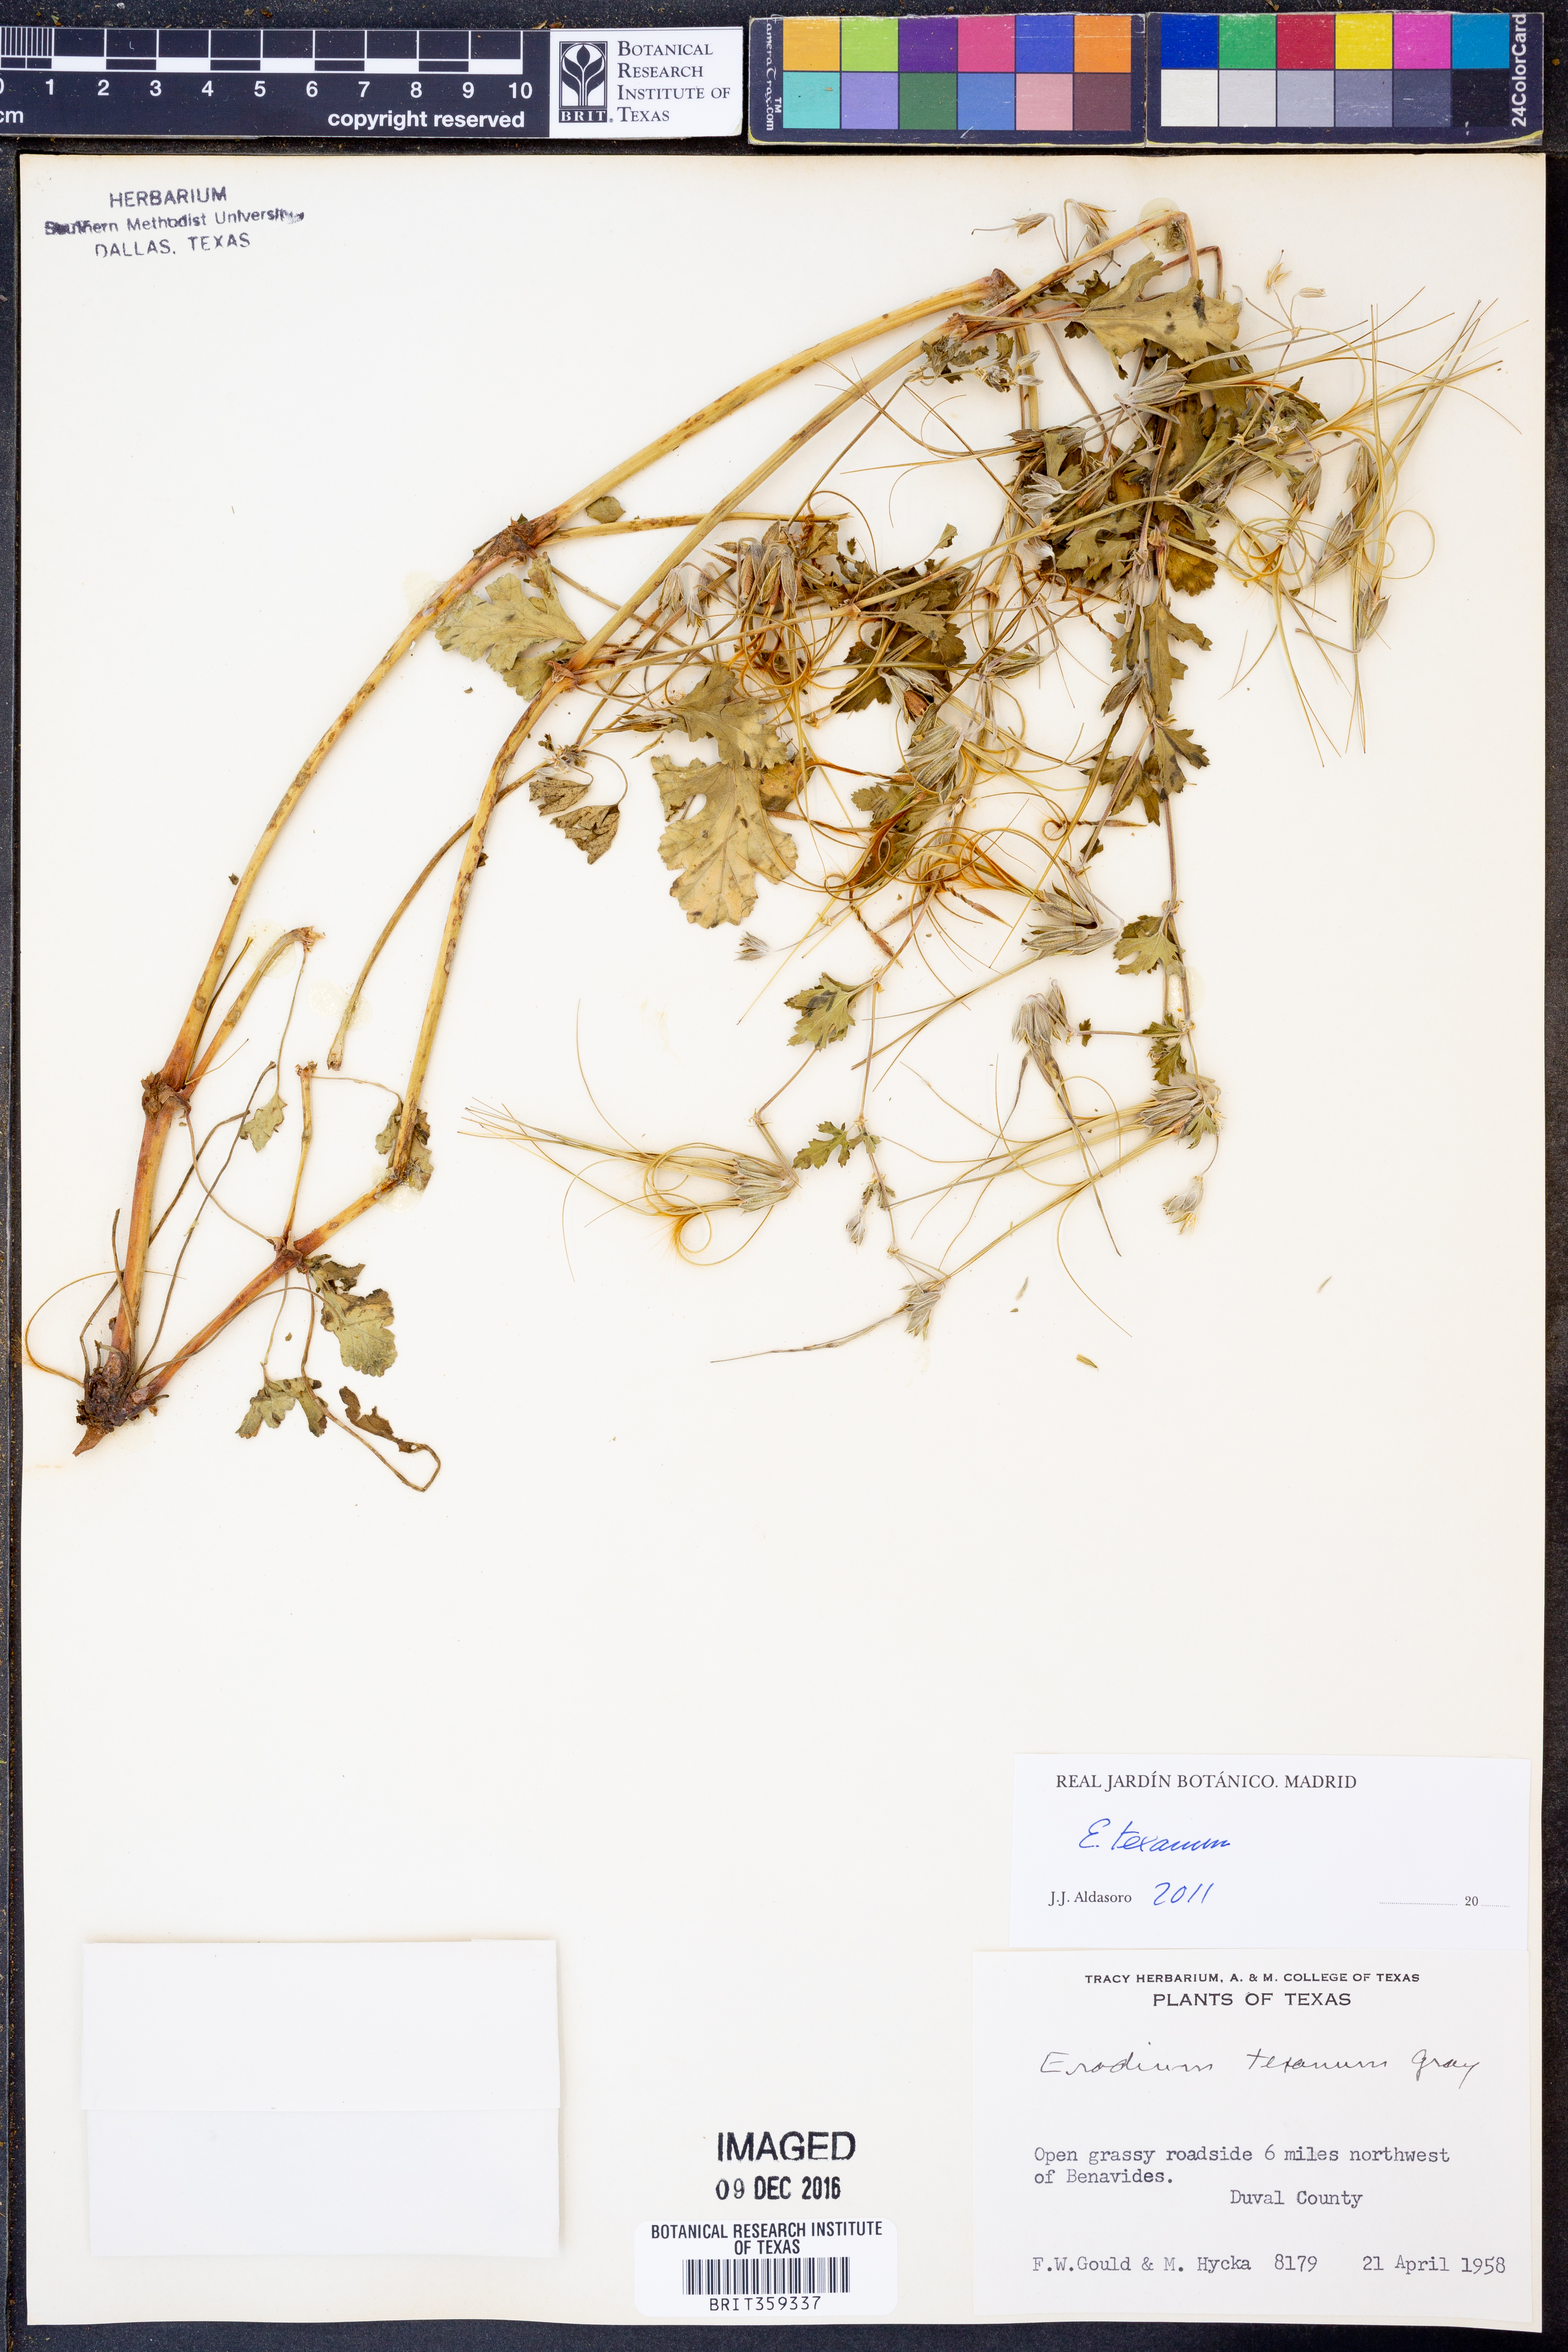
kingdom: Plantae
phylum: Tracheophyta
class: Magnoliopsida
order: Geraniales
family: Geraniaceae
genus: Erodium
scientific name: Erodium texanum
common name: Texas stork's-bill
